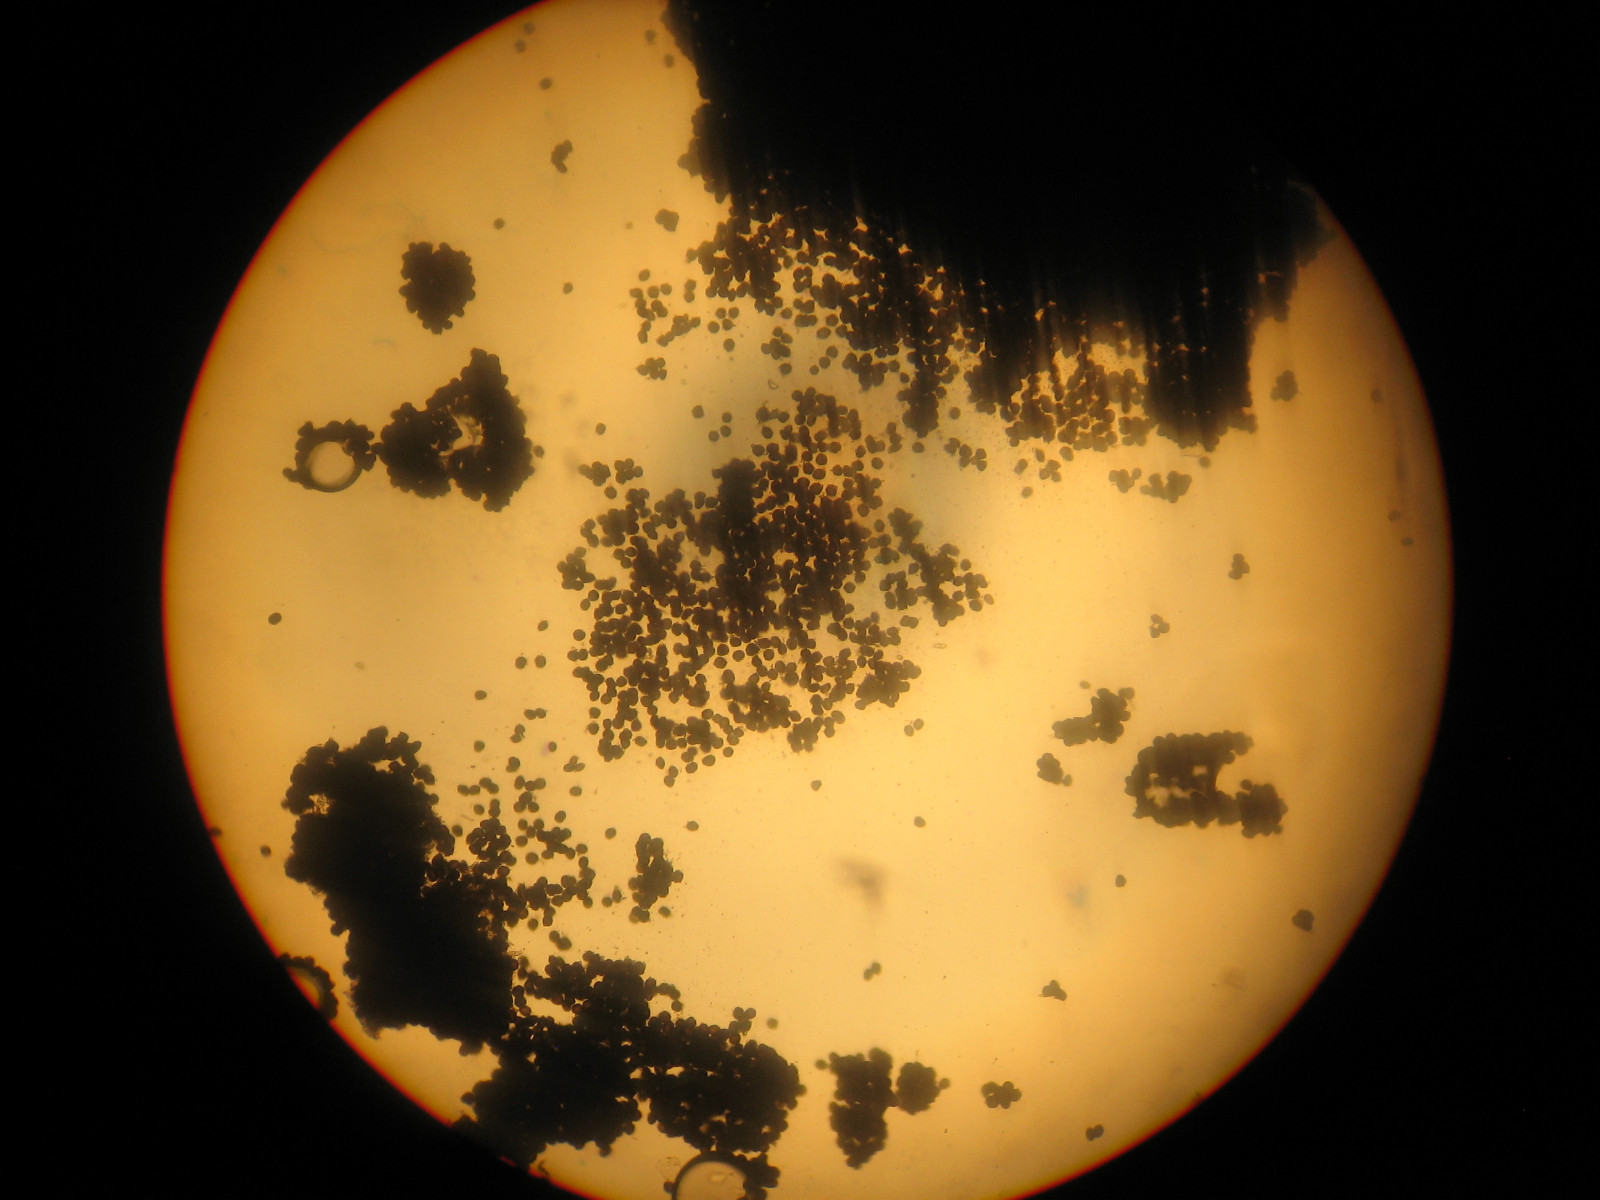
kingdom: Fungi
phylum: Basidiomycota
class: Ustilaginomycetes
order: Ustilaginales
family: Anthracoideaceae
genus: Anthracoidea
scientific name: Anthracoidea subinclusa
